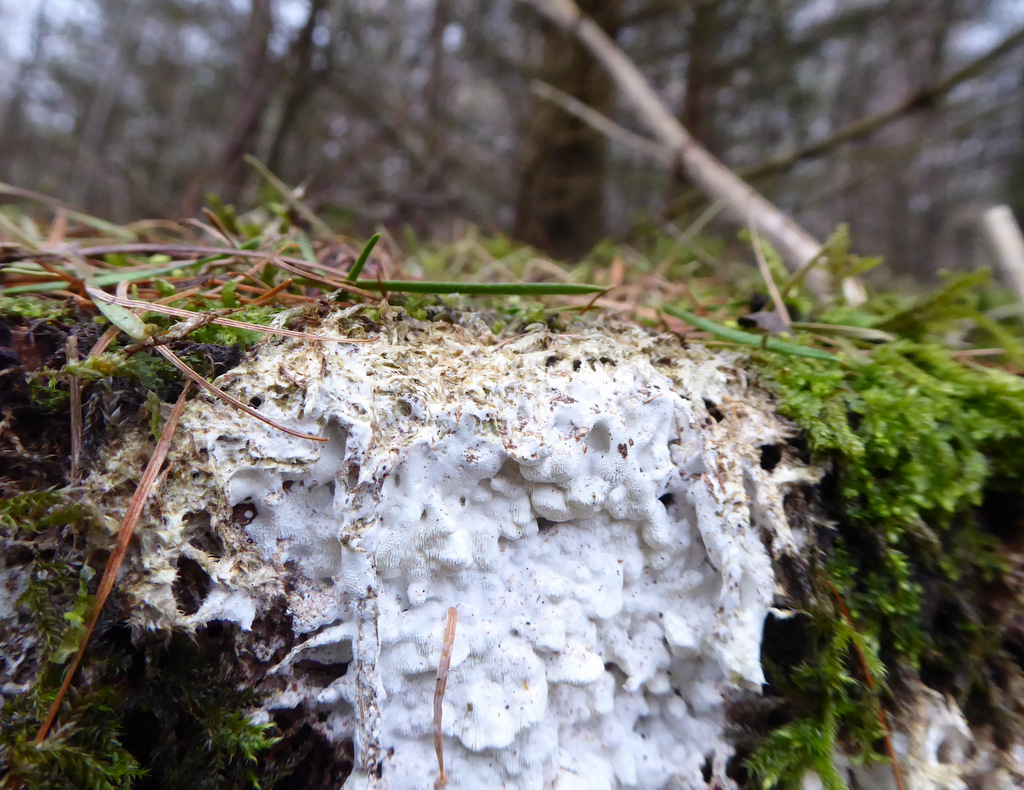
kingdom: Fungi
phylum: Basidiomycota
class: Agaricomycetes
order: Polyporales
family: Fomitopsidaceae
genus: Daedalea
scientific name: Daedalea xantha
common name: gul sejporesvamp
